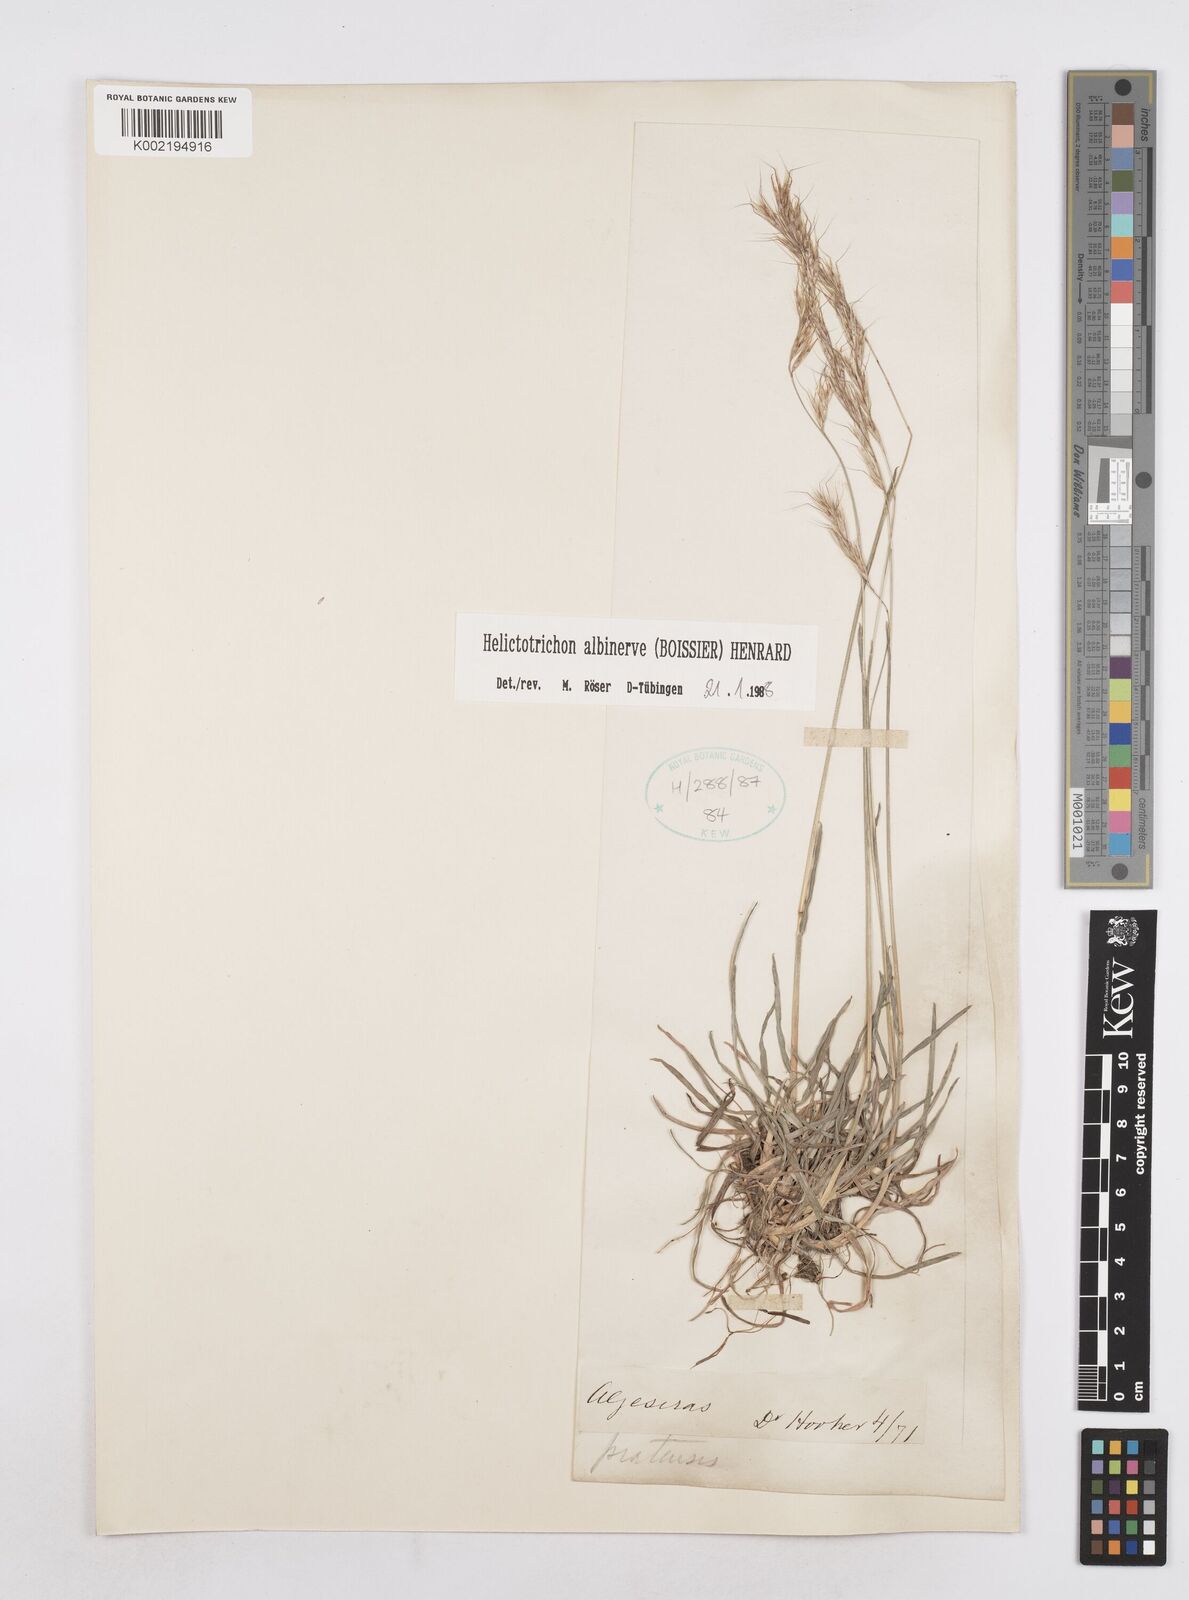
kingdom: Plantae
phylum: Tracheophyta
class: Liliopsida
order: Poales
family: Poaceae
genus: Helictochloa
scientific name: Helictochloa albinervis
